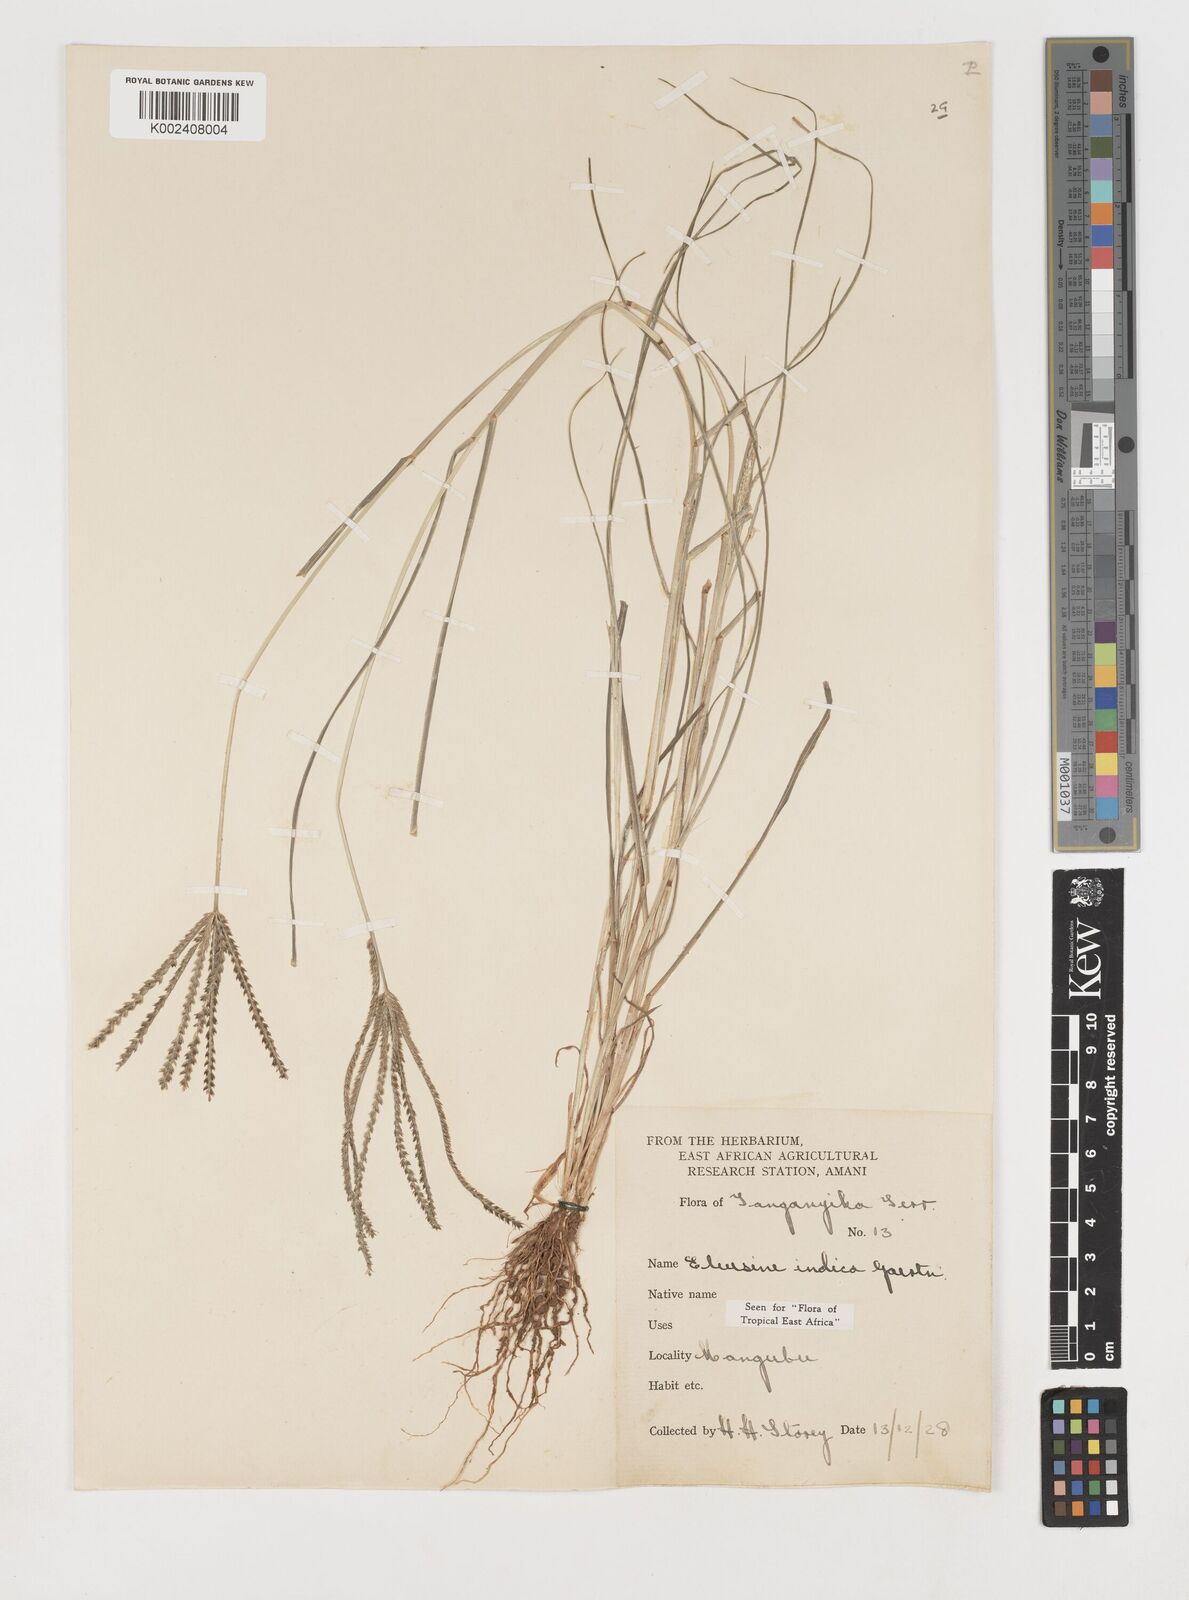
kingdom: Plantae
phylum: Tracheophyta
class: Liliopsida
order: Poales
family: Poaceae
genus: Eleusine
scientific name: Eleusine indica
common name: Yard-grass
